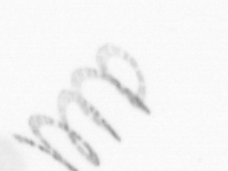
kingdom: Chromista
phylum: Ochrophyta
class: Bacillariophyceae
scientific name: Bacillariophyceae
